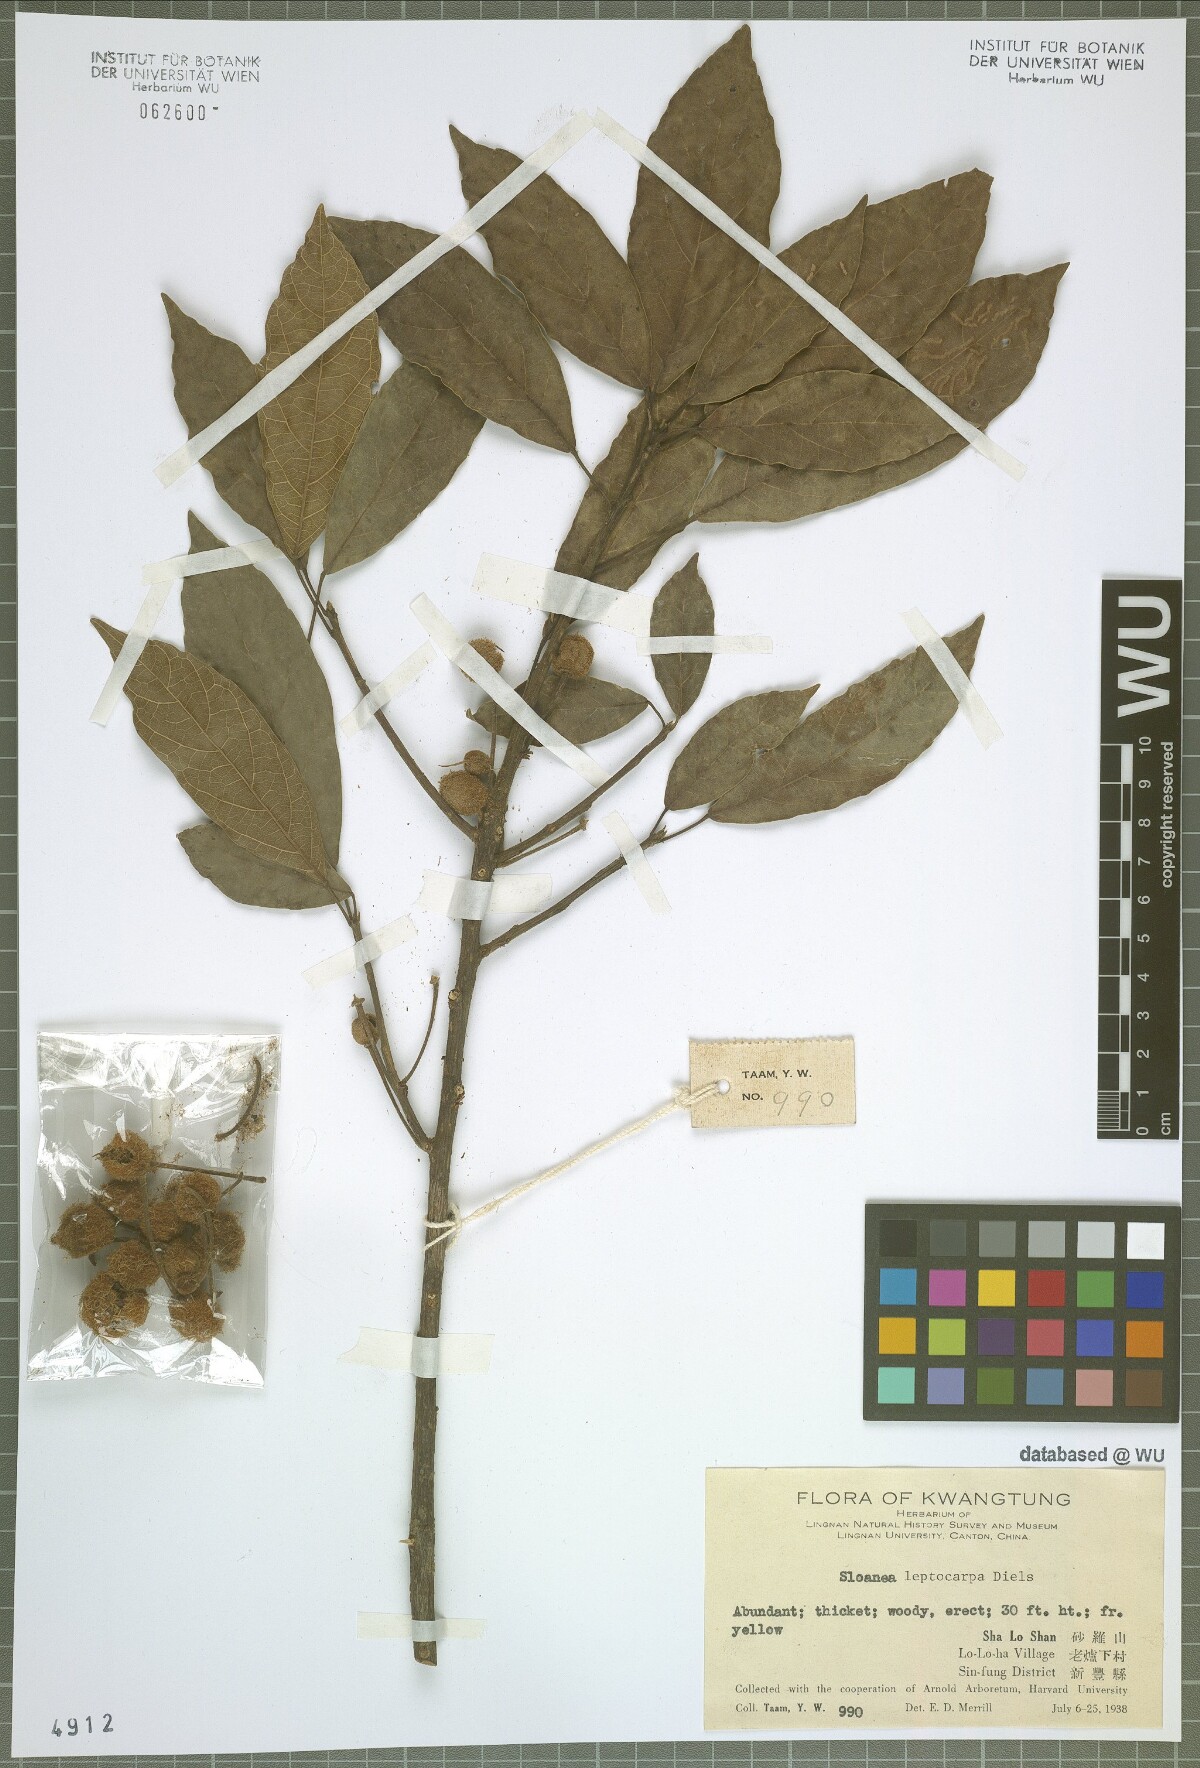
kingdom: Plantae
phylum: Tracheophyta
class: Magnoliopsida
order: Oxalidales
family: Elaeocarpaceae
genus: Sloanea
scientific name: Sloanea leptocarpa
